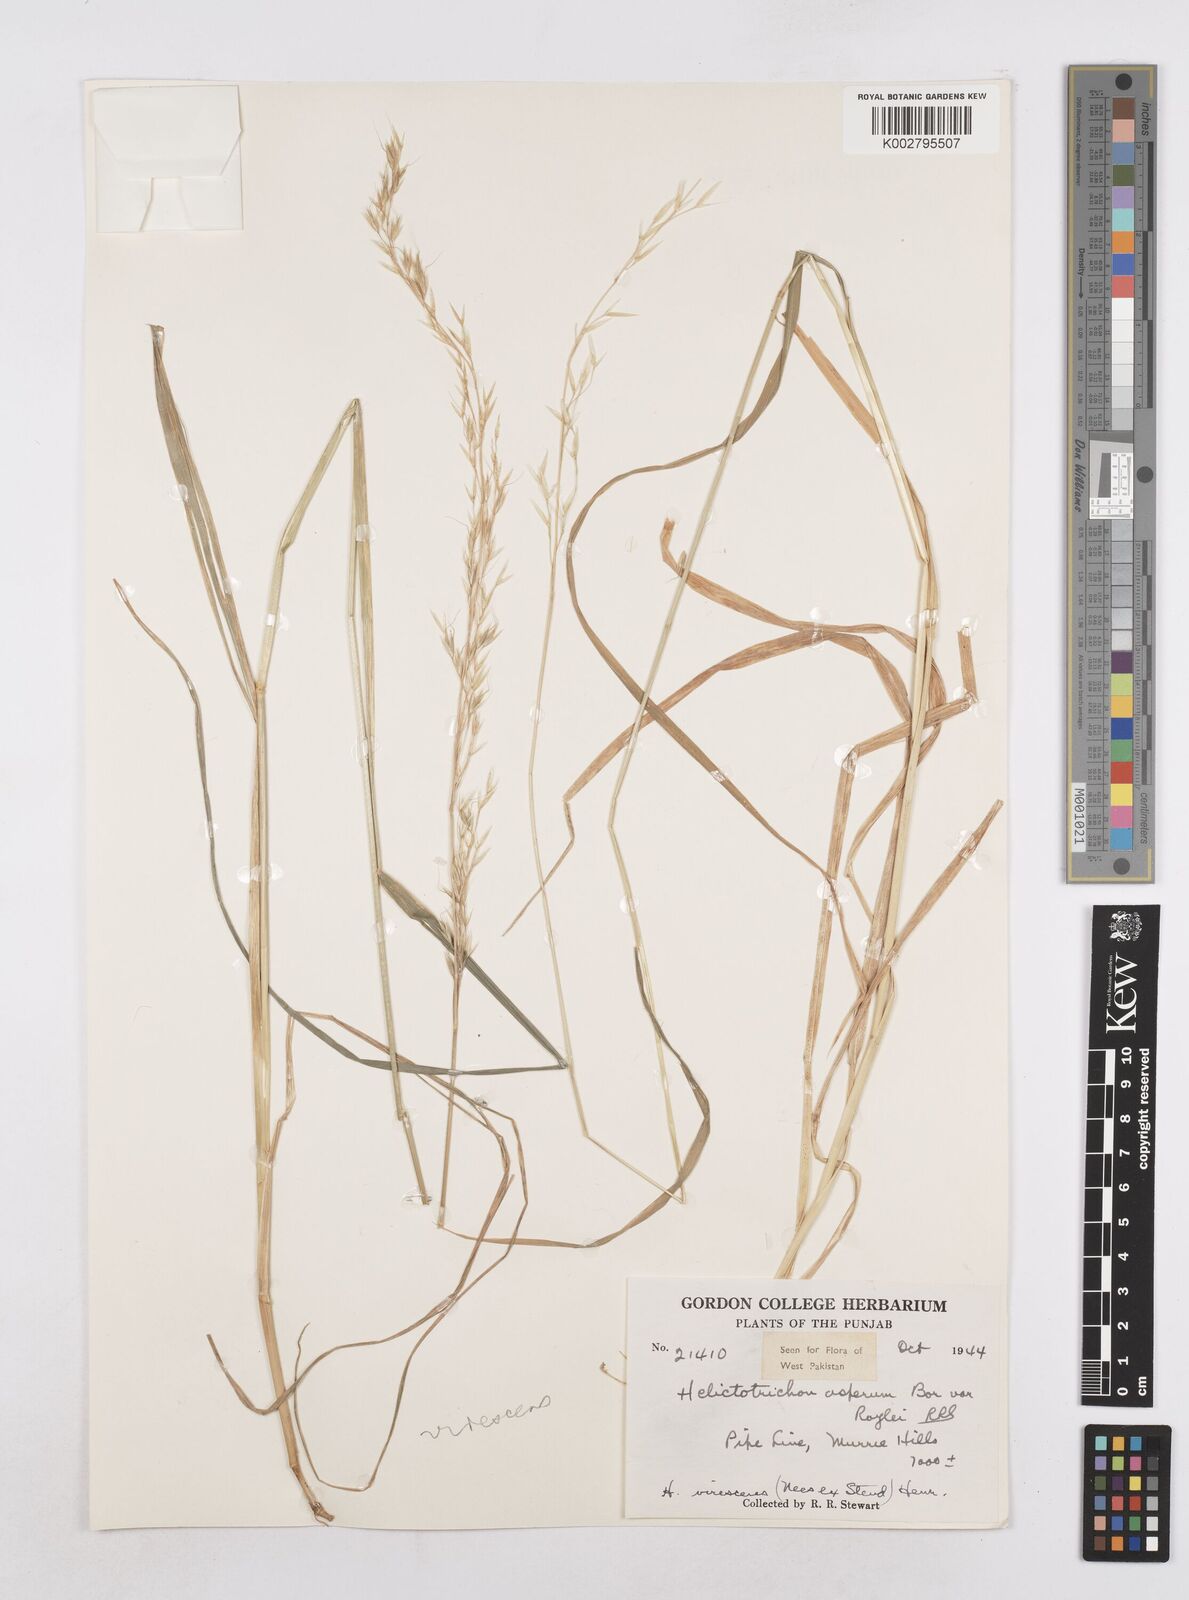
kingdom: Plantae
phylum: Tracheophyta
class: Liliopsida
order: Poales
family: Poaceae
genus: Trisetopsis
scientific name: Trisetopsis junghuhnii
